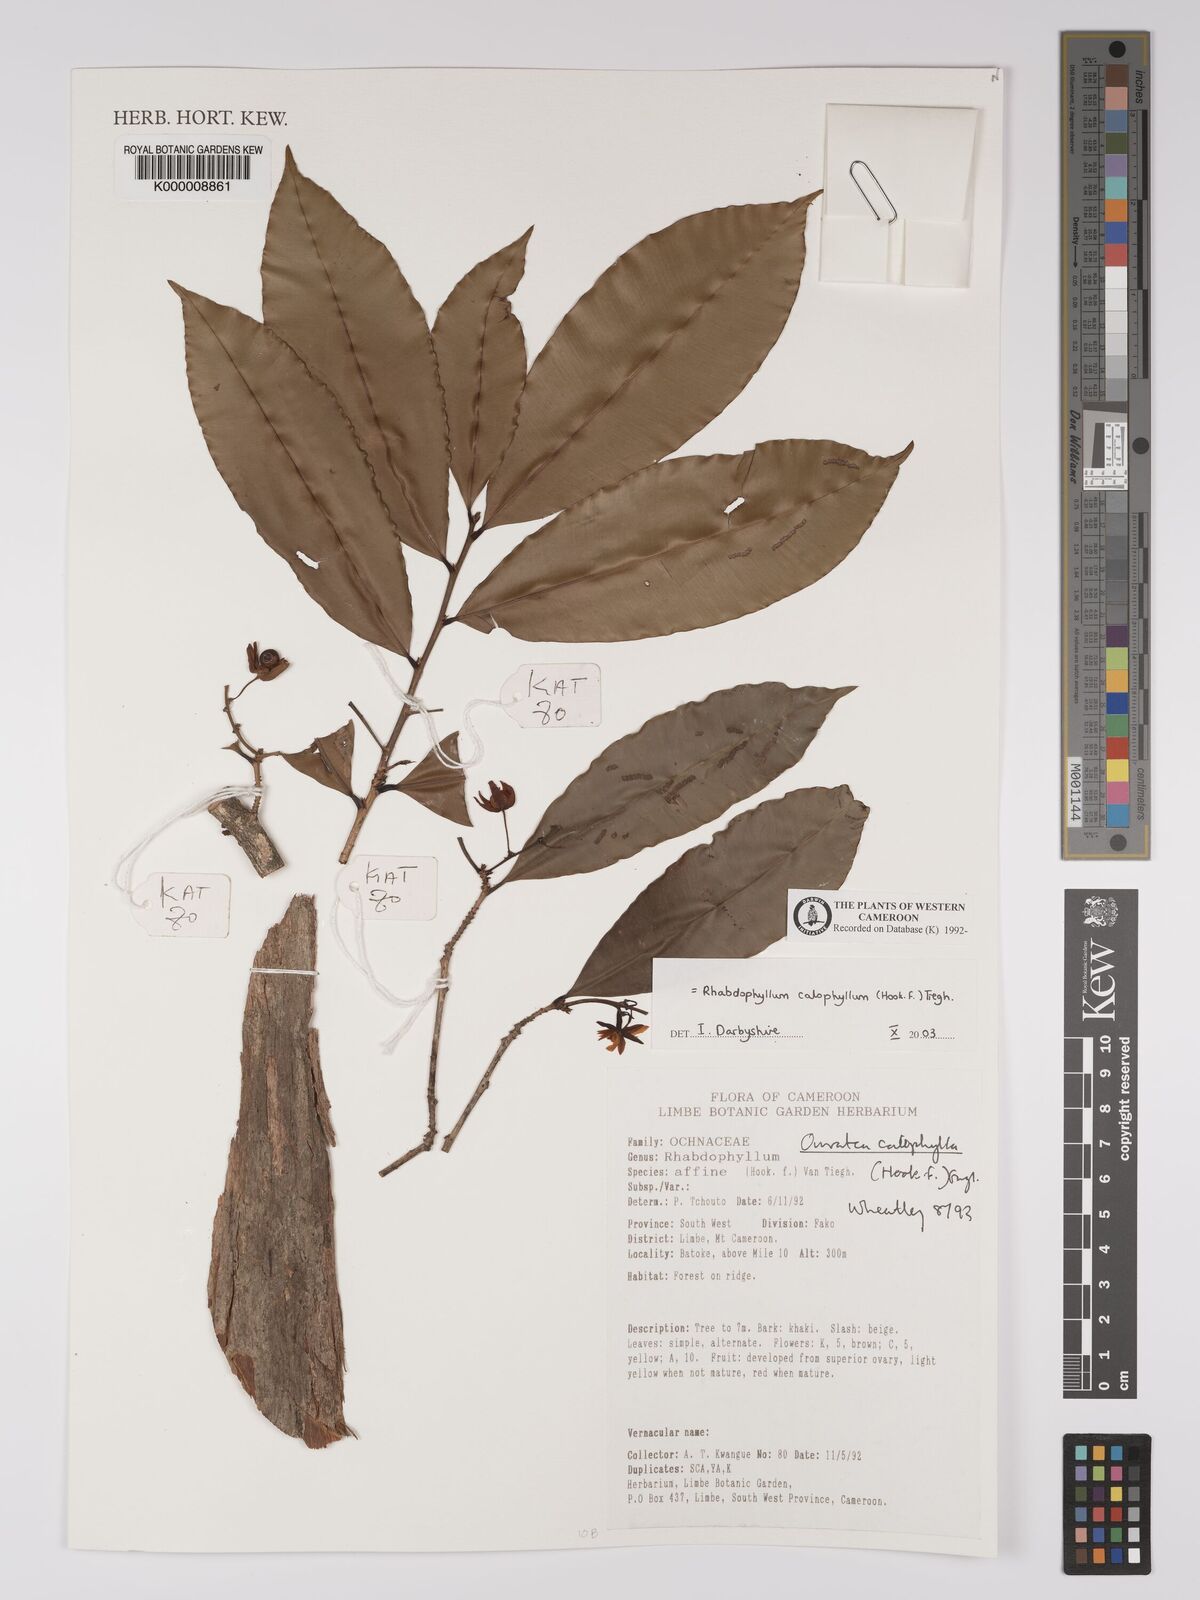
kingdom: Plantae
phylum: Tracheophyta
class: Magnoliopsida
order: Malpighiales
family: Ochnaceae
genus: Rhabdophyllum
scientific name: Rhabdophyllum calophyllum
